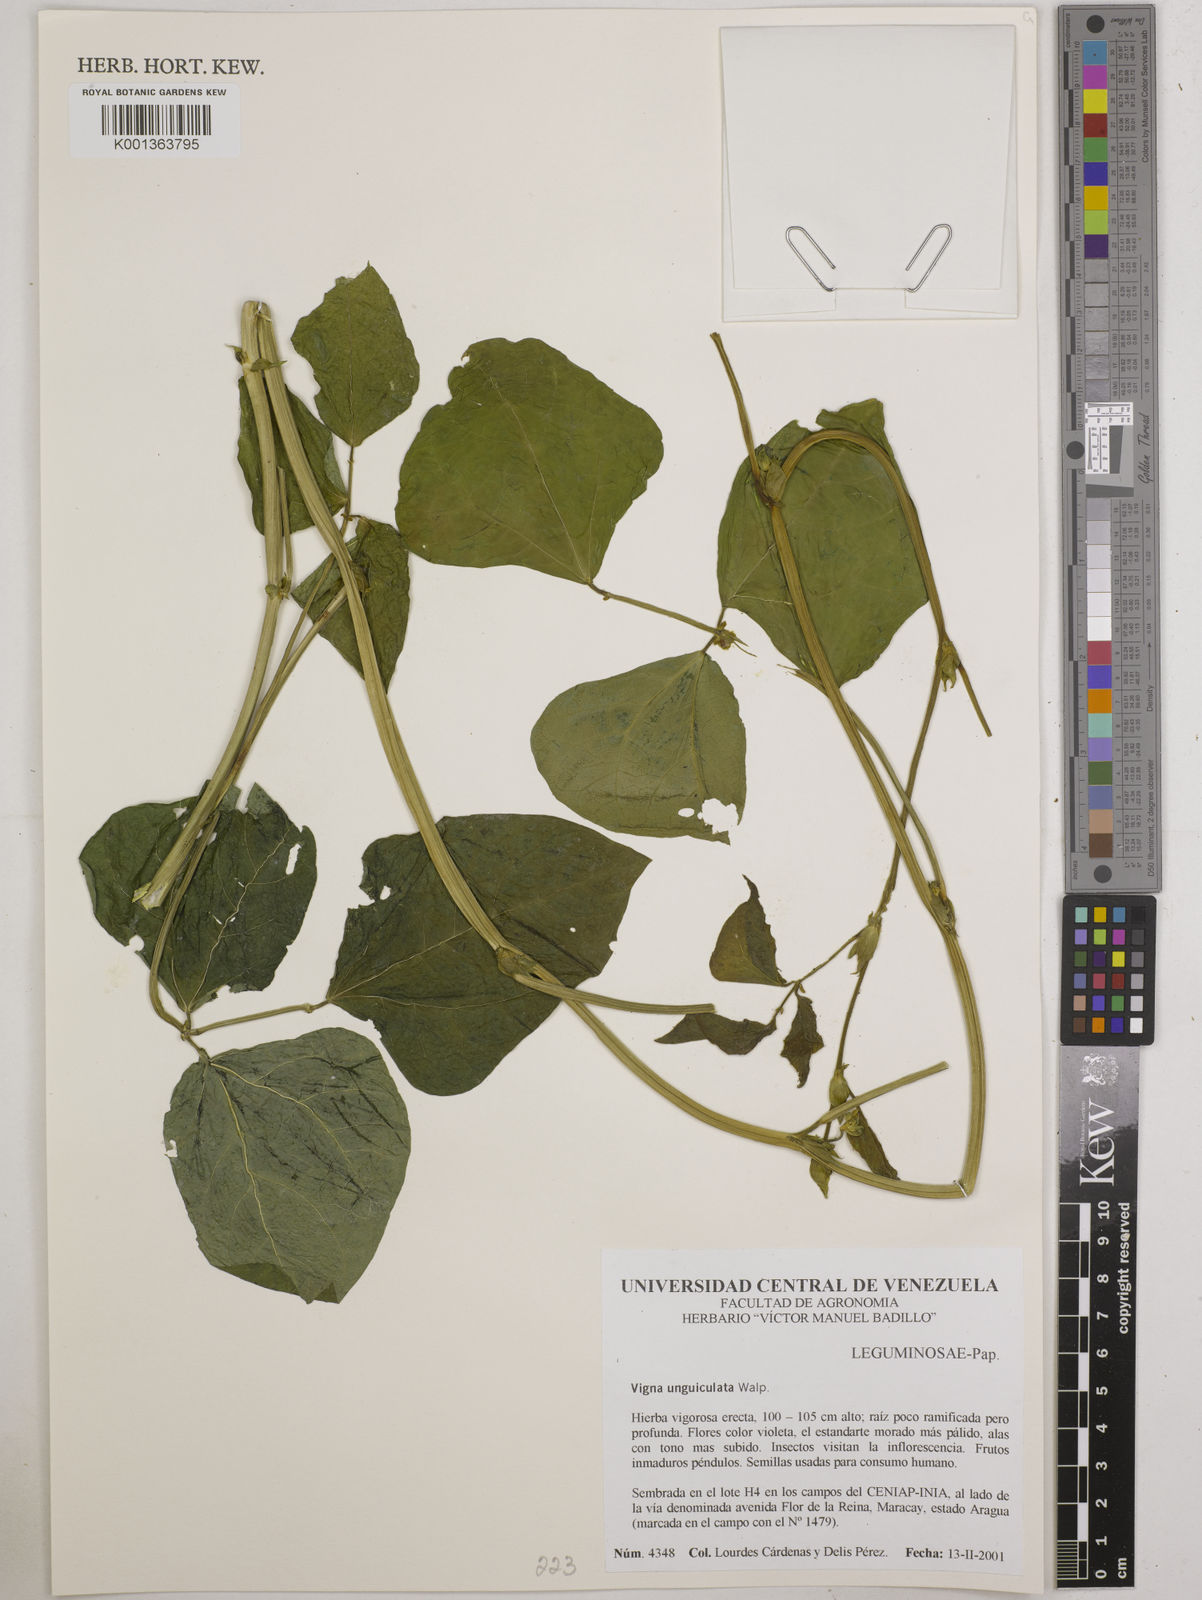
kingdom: Plantae
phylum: Tracheophyta
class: Magnoliopsida
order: Fabales
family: Fabaceae
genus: Vigna
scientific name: Vigna unguiculata
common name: Cowpea
